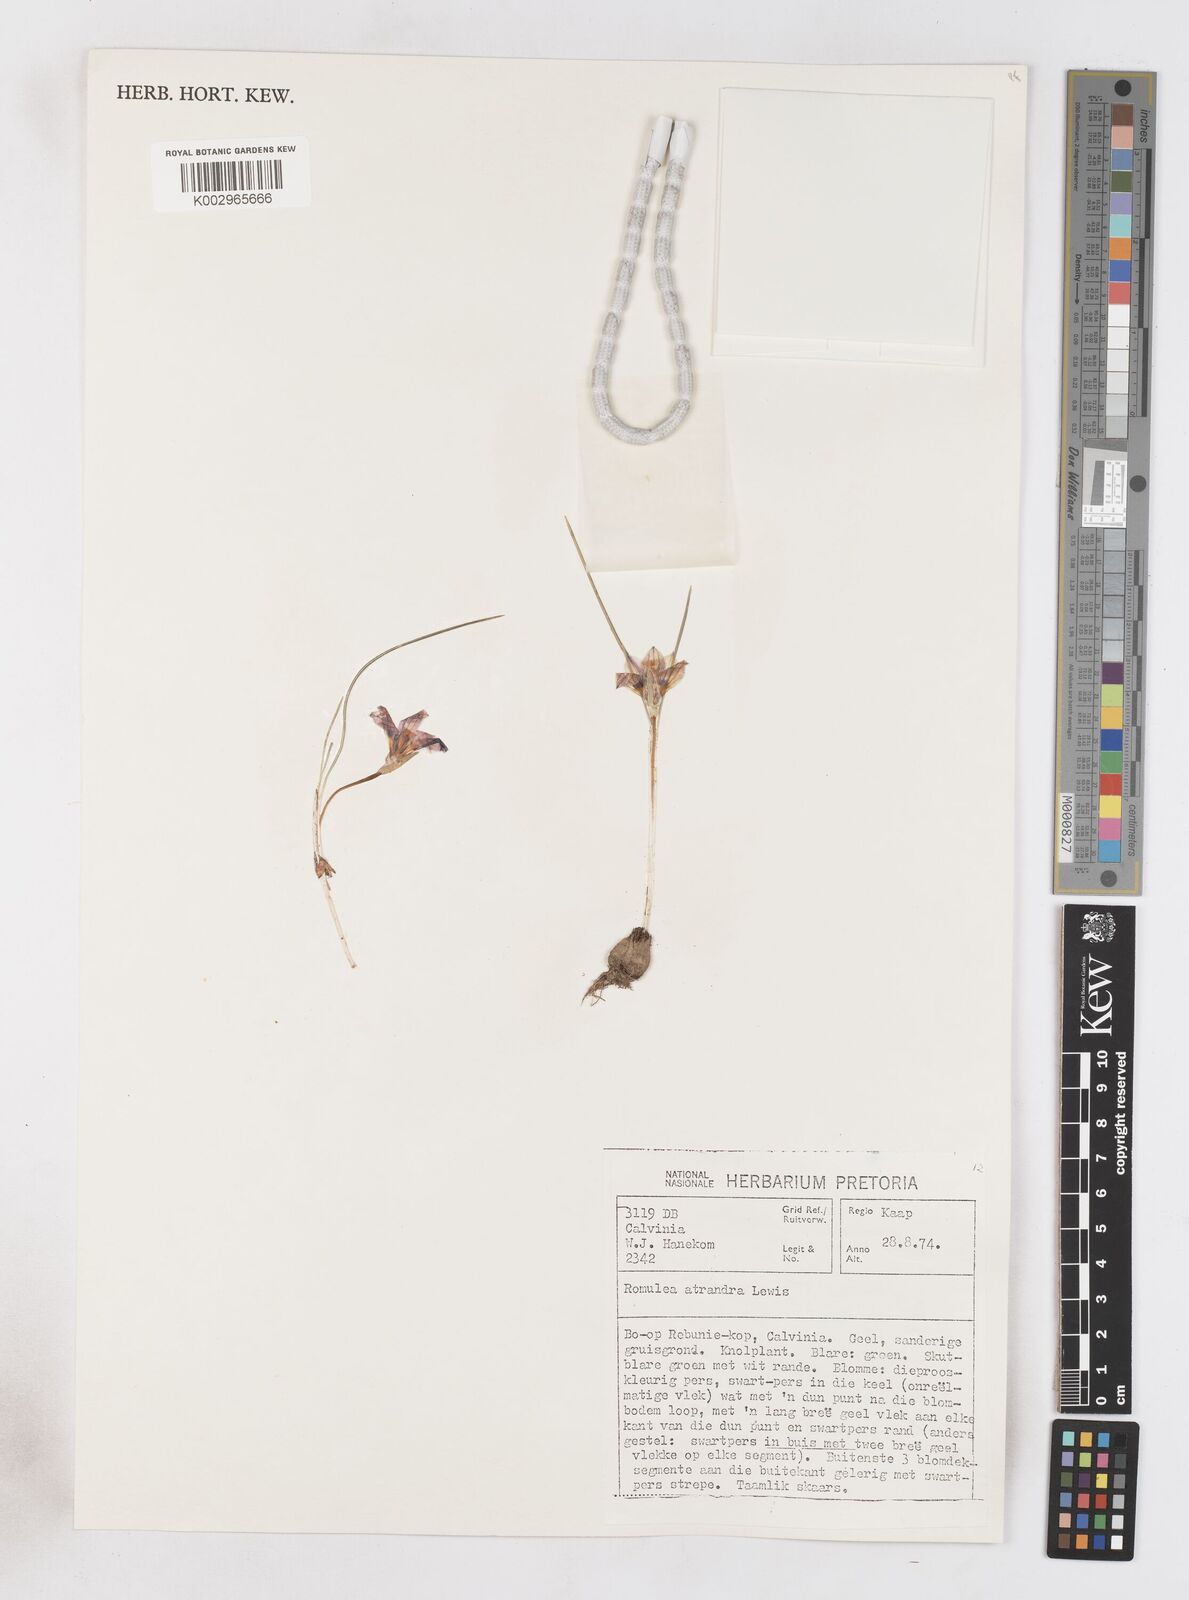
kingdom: Plantae
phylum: Tracheophyta
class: Liliopsida
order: Asparagales
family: Iridaceae
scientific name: Iridaceae
